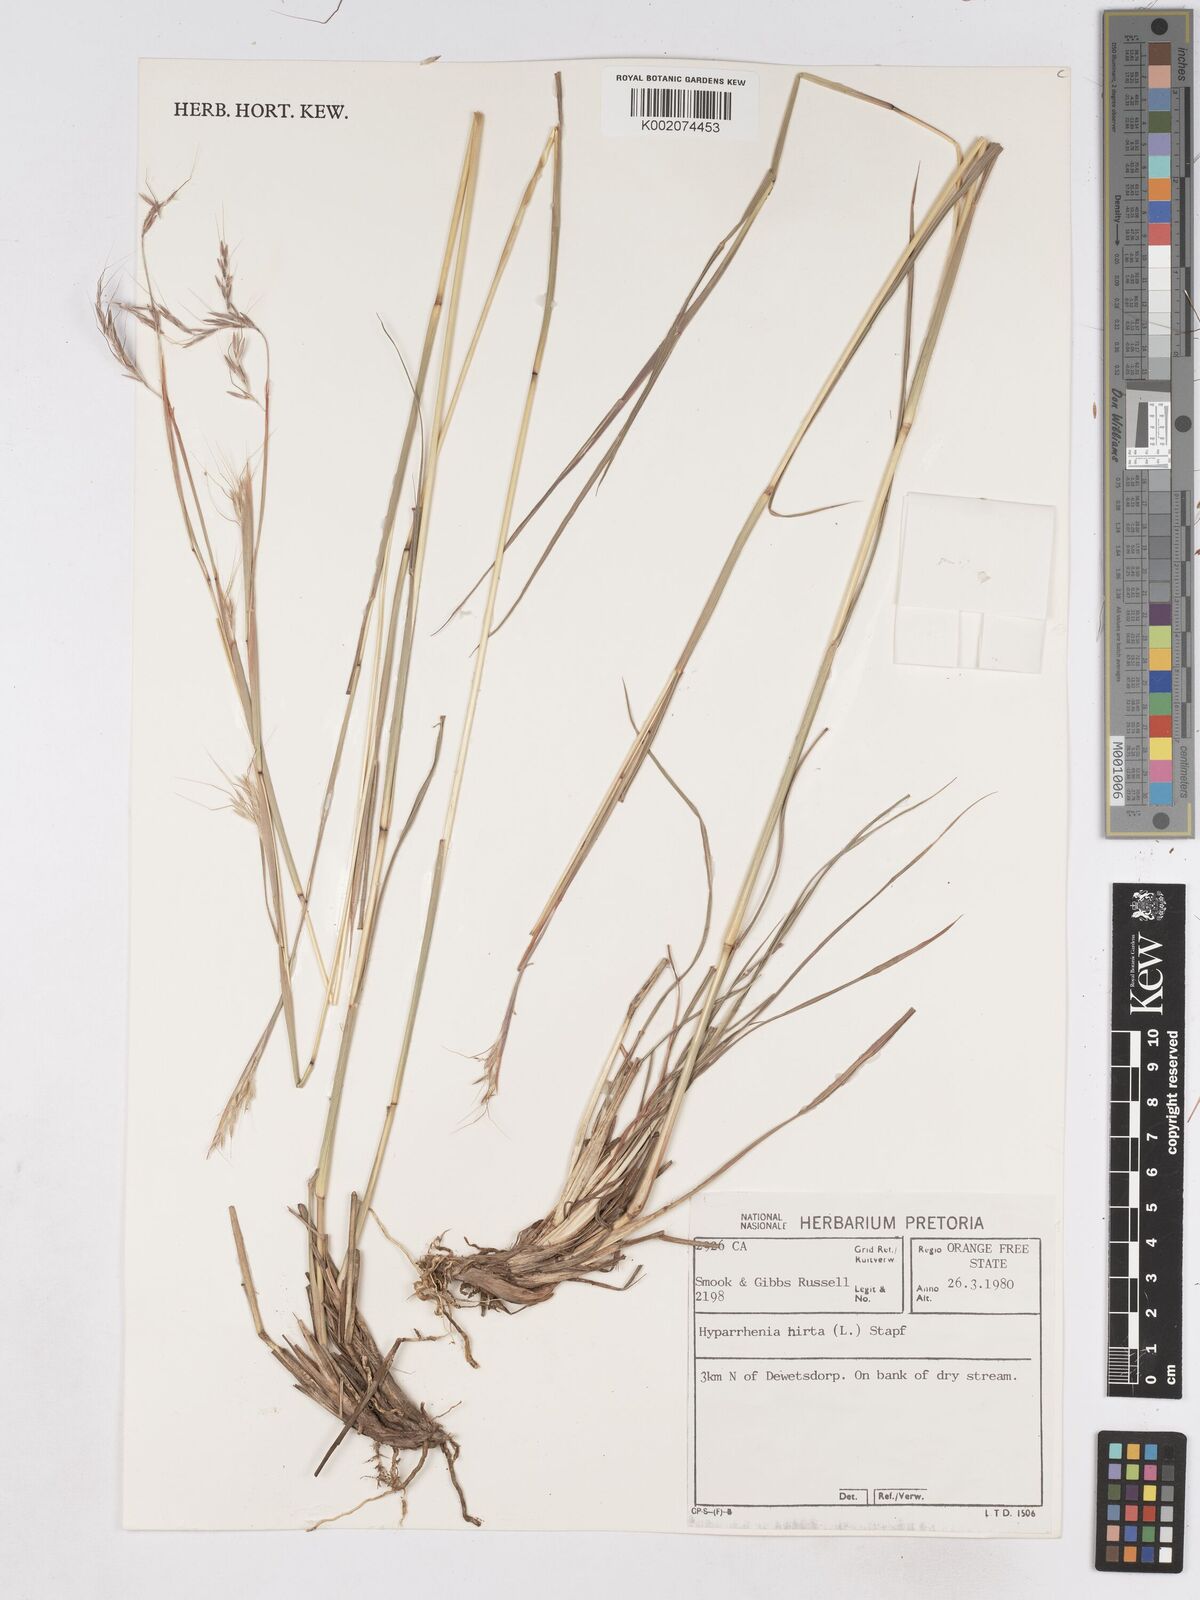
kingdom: Plantae
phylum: Tracheophyta
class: Liliopsida
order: Poales
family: Poaceae
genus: Hyparrhenia
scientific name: Hyparrhenia hirta
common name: Thatching grass
